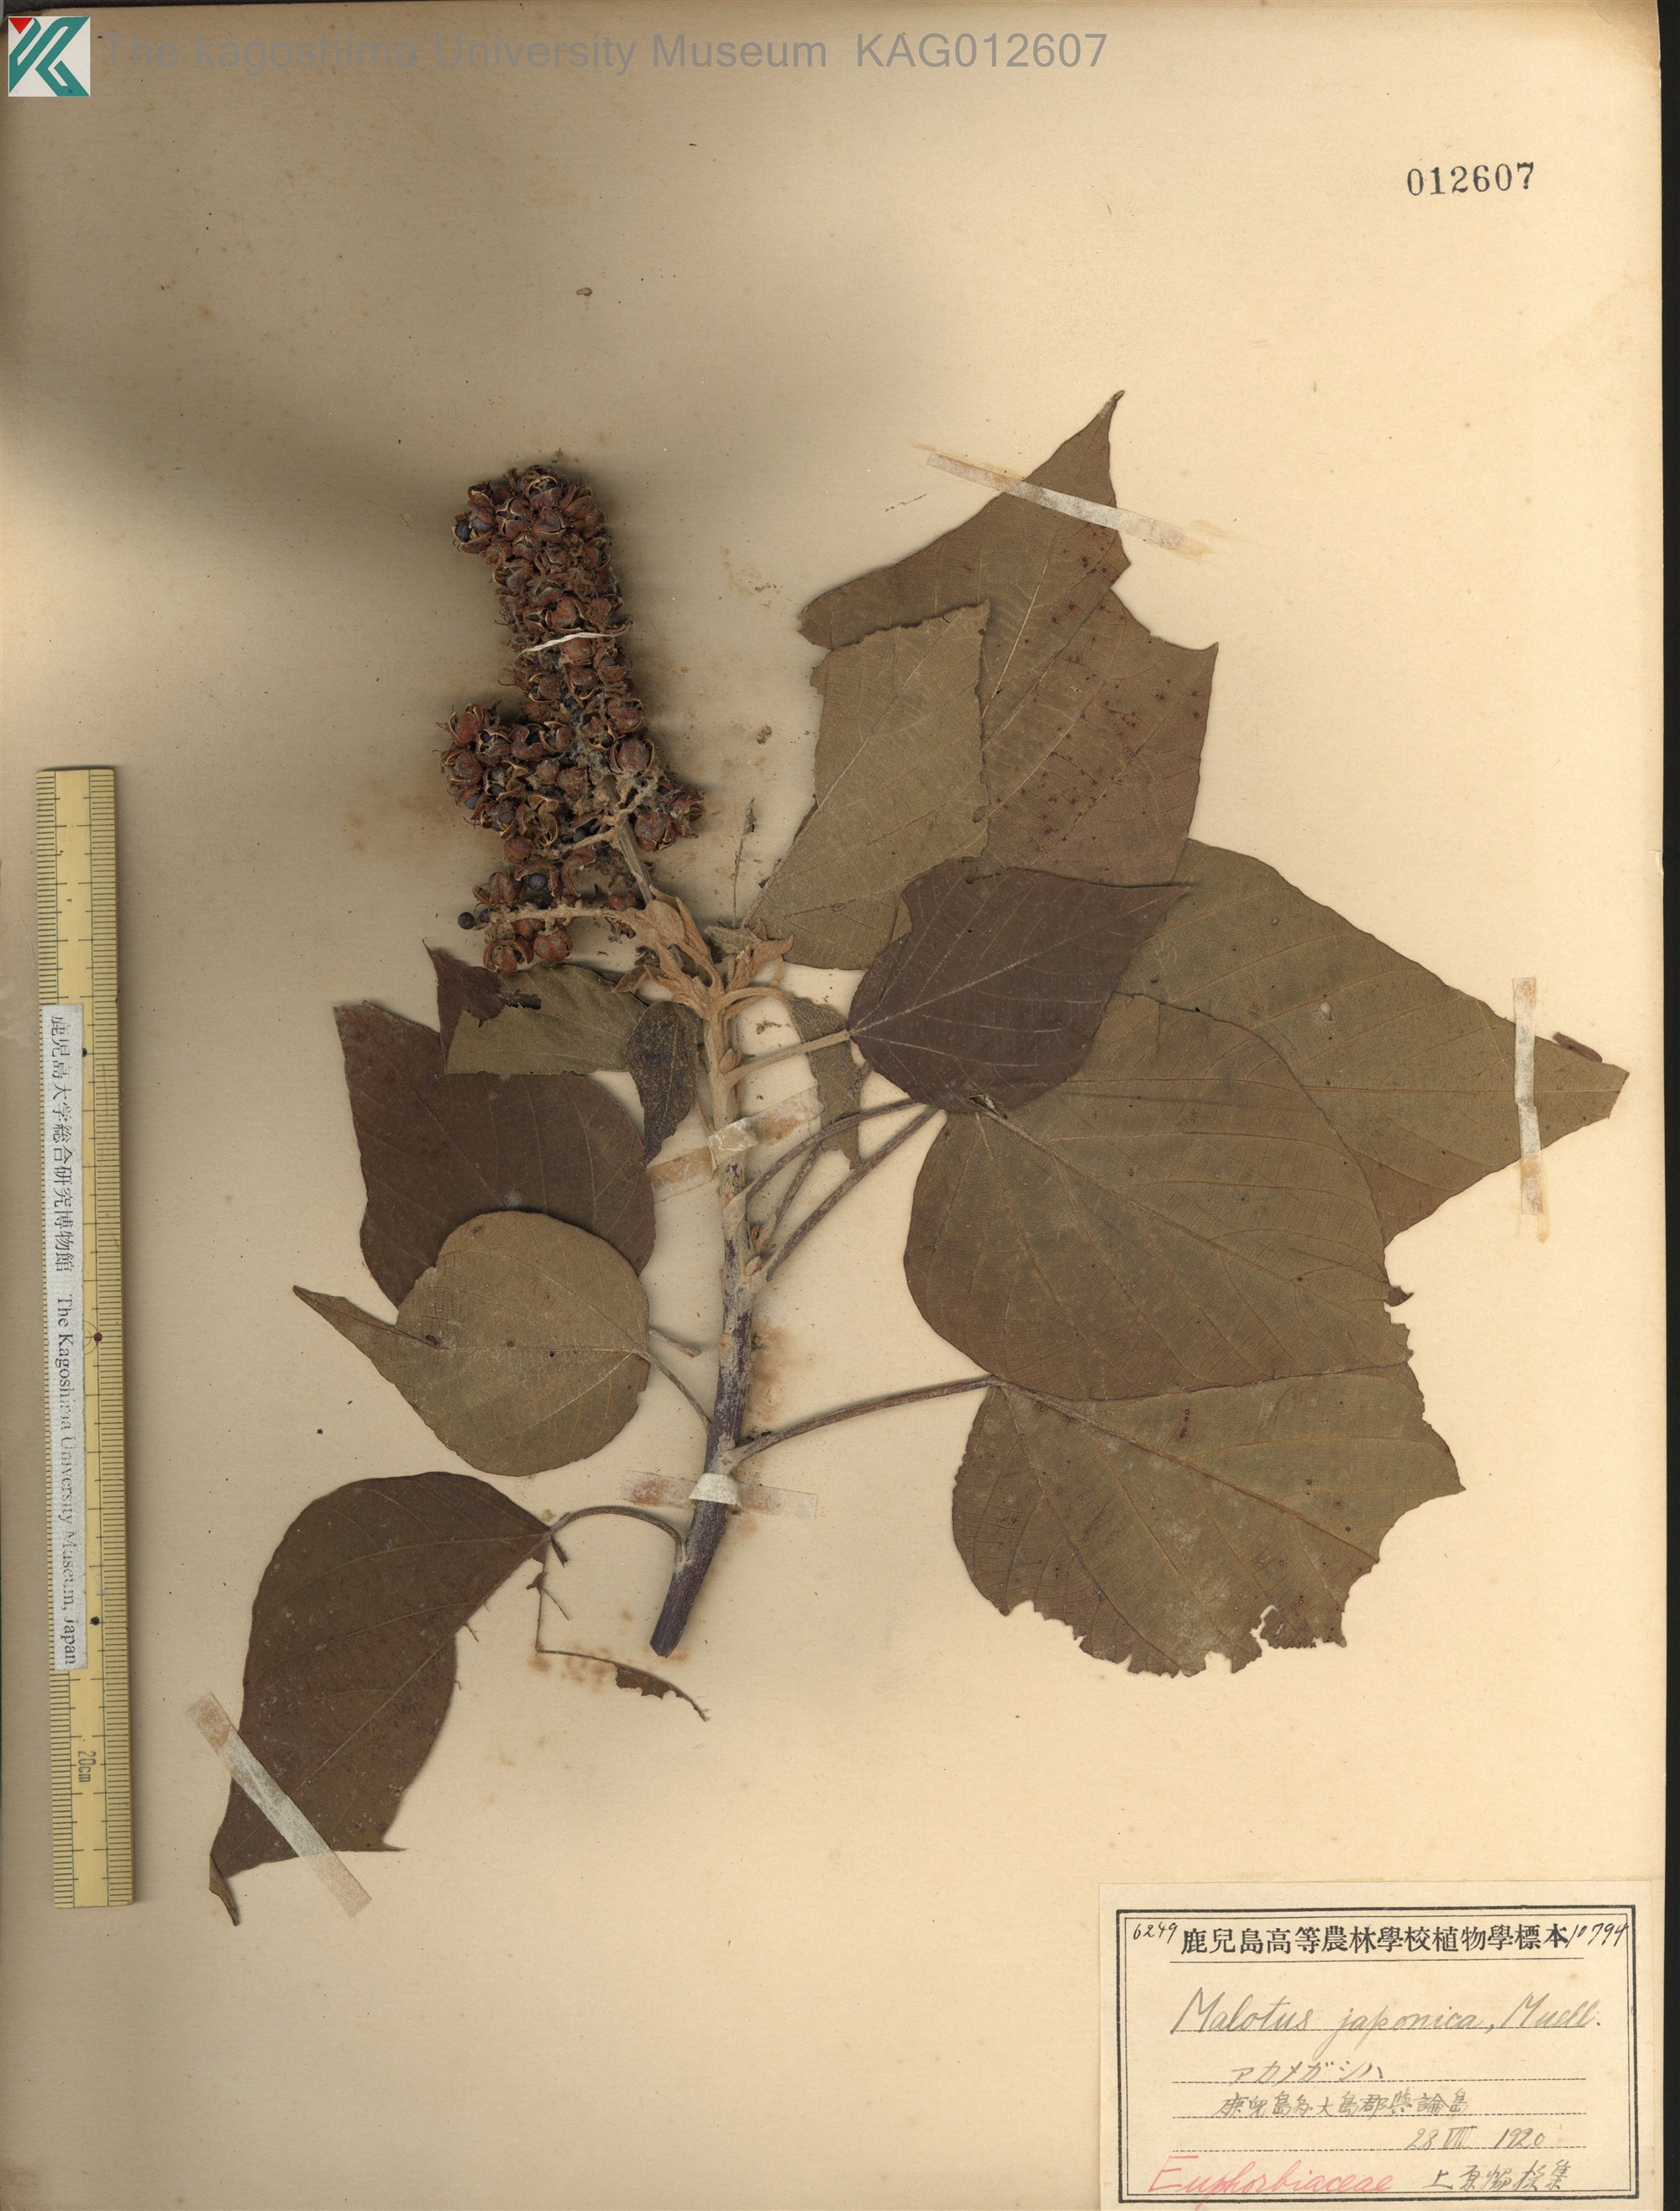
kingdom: Plantae
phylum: Tracheophyta
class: Magnoliopsida
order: Malpighiales
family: Euphorbiaceae
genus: Mallotus
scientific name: Mallotus japonicus
